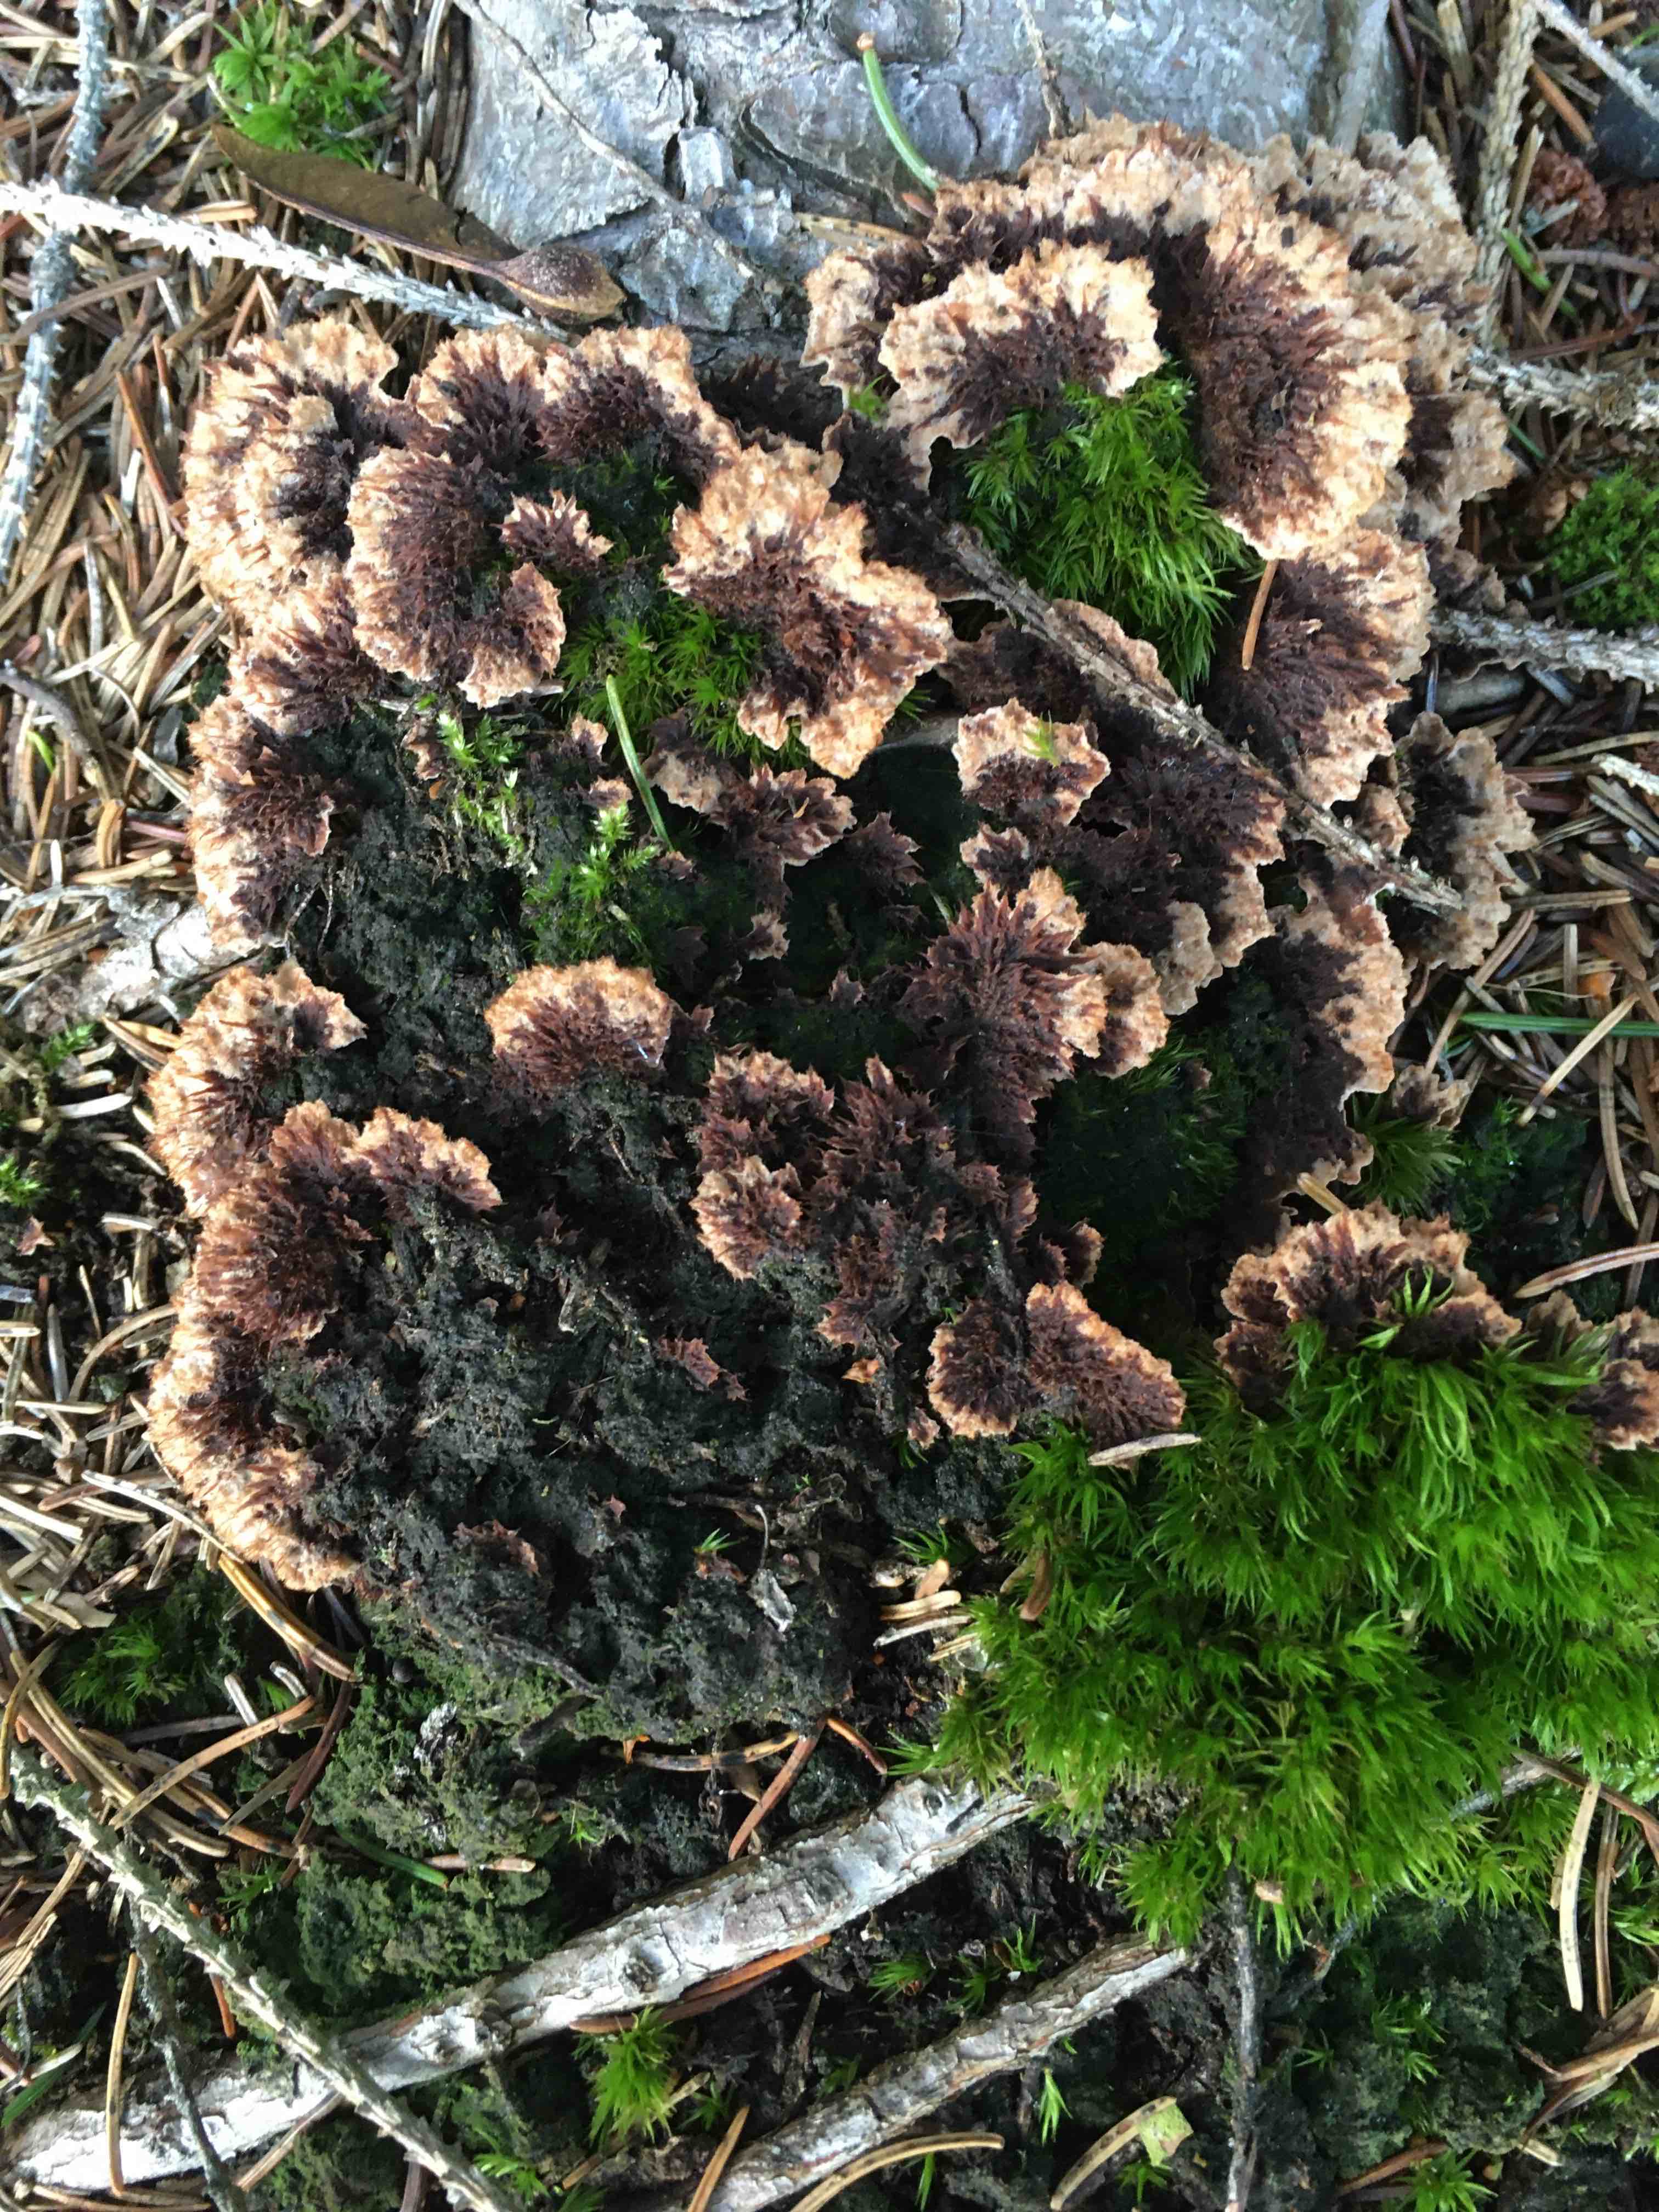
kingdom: Fungi
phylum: Basidiomycota
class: Agaricomycetes
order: Thelephorales
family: Thelephoraceae
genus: Thelephora
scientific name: Thelephora terrestris
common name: fliget frynsesvamp
